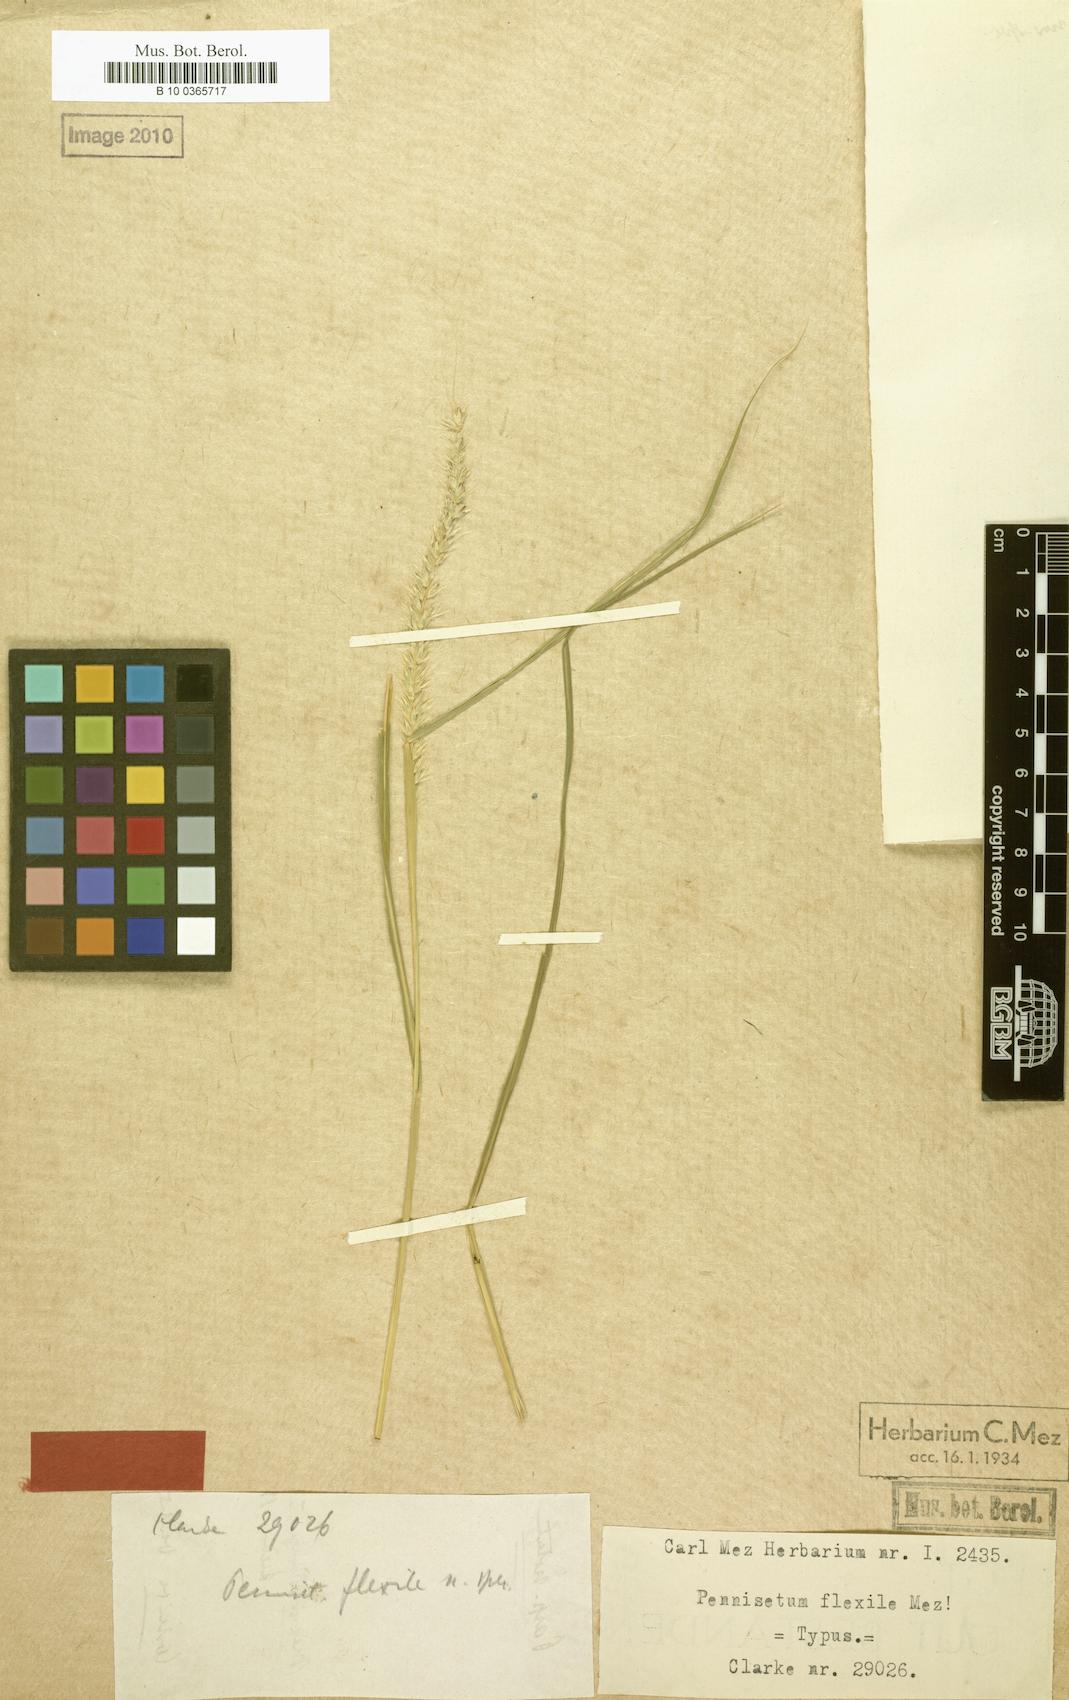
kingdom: Plantae
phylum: Tracheophyta
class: Liliopsida
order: Poales
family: Poaceae
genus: Cenchrus
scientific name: Cenchrus flexilis
